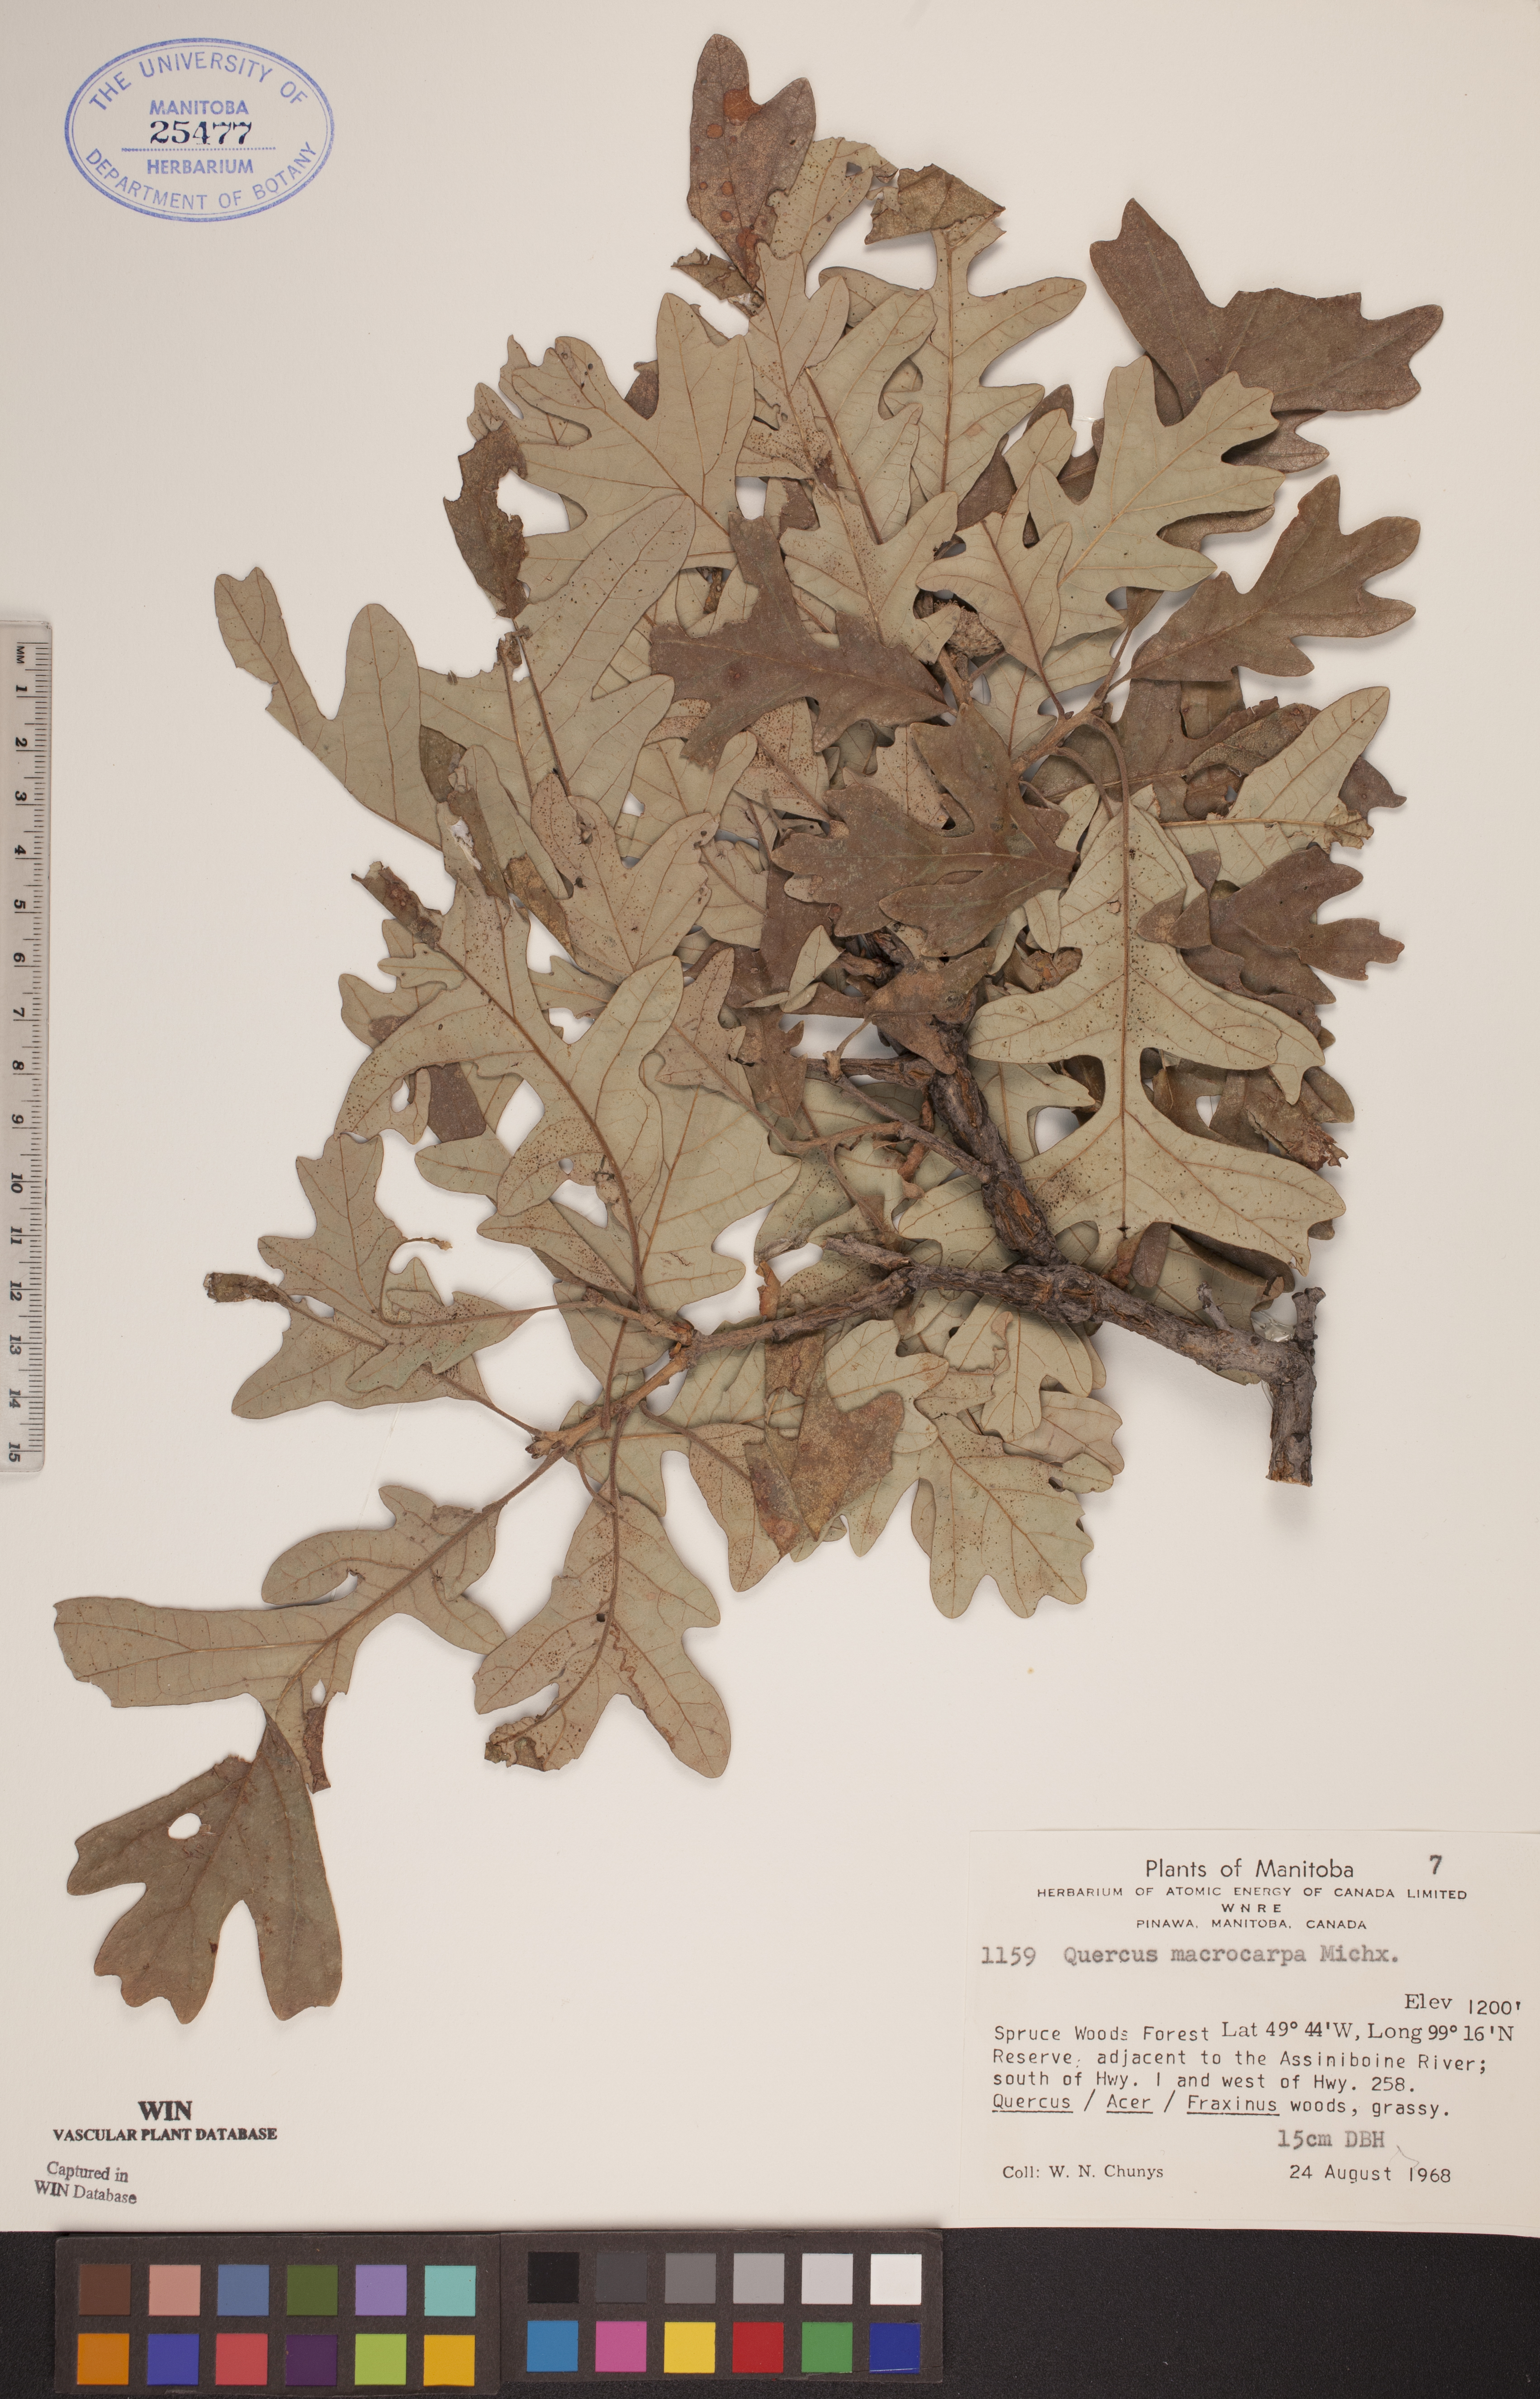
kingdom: Plantae
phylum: Tracheophyta
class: Magnoliopsida
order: Fagales
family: Fagaceae
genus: Quercus
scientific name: Quercus macrocarpa
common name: Bur oak
